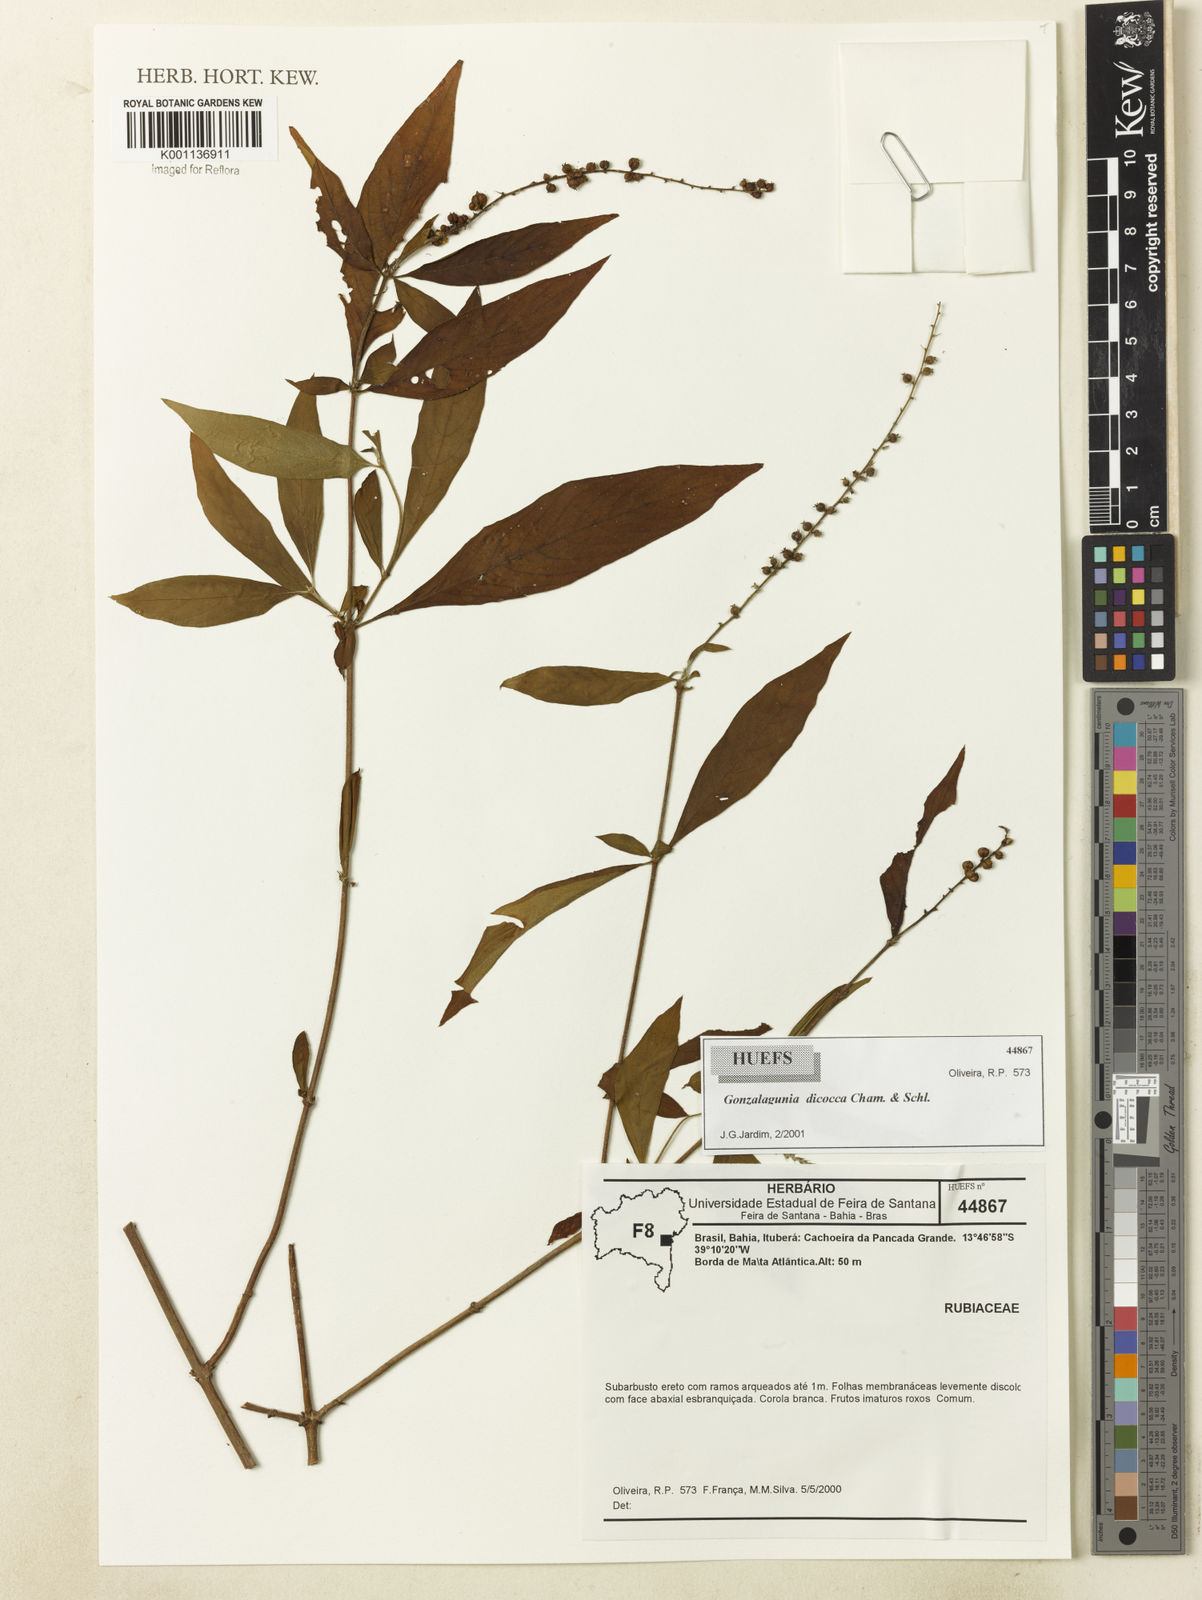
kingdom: Plantae
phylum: Tracheophyta
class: Magnoliopsida
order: Gentianales
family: Rubiaceae
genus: Gonzalagunia
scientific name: Gonzalagunia dicocca
